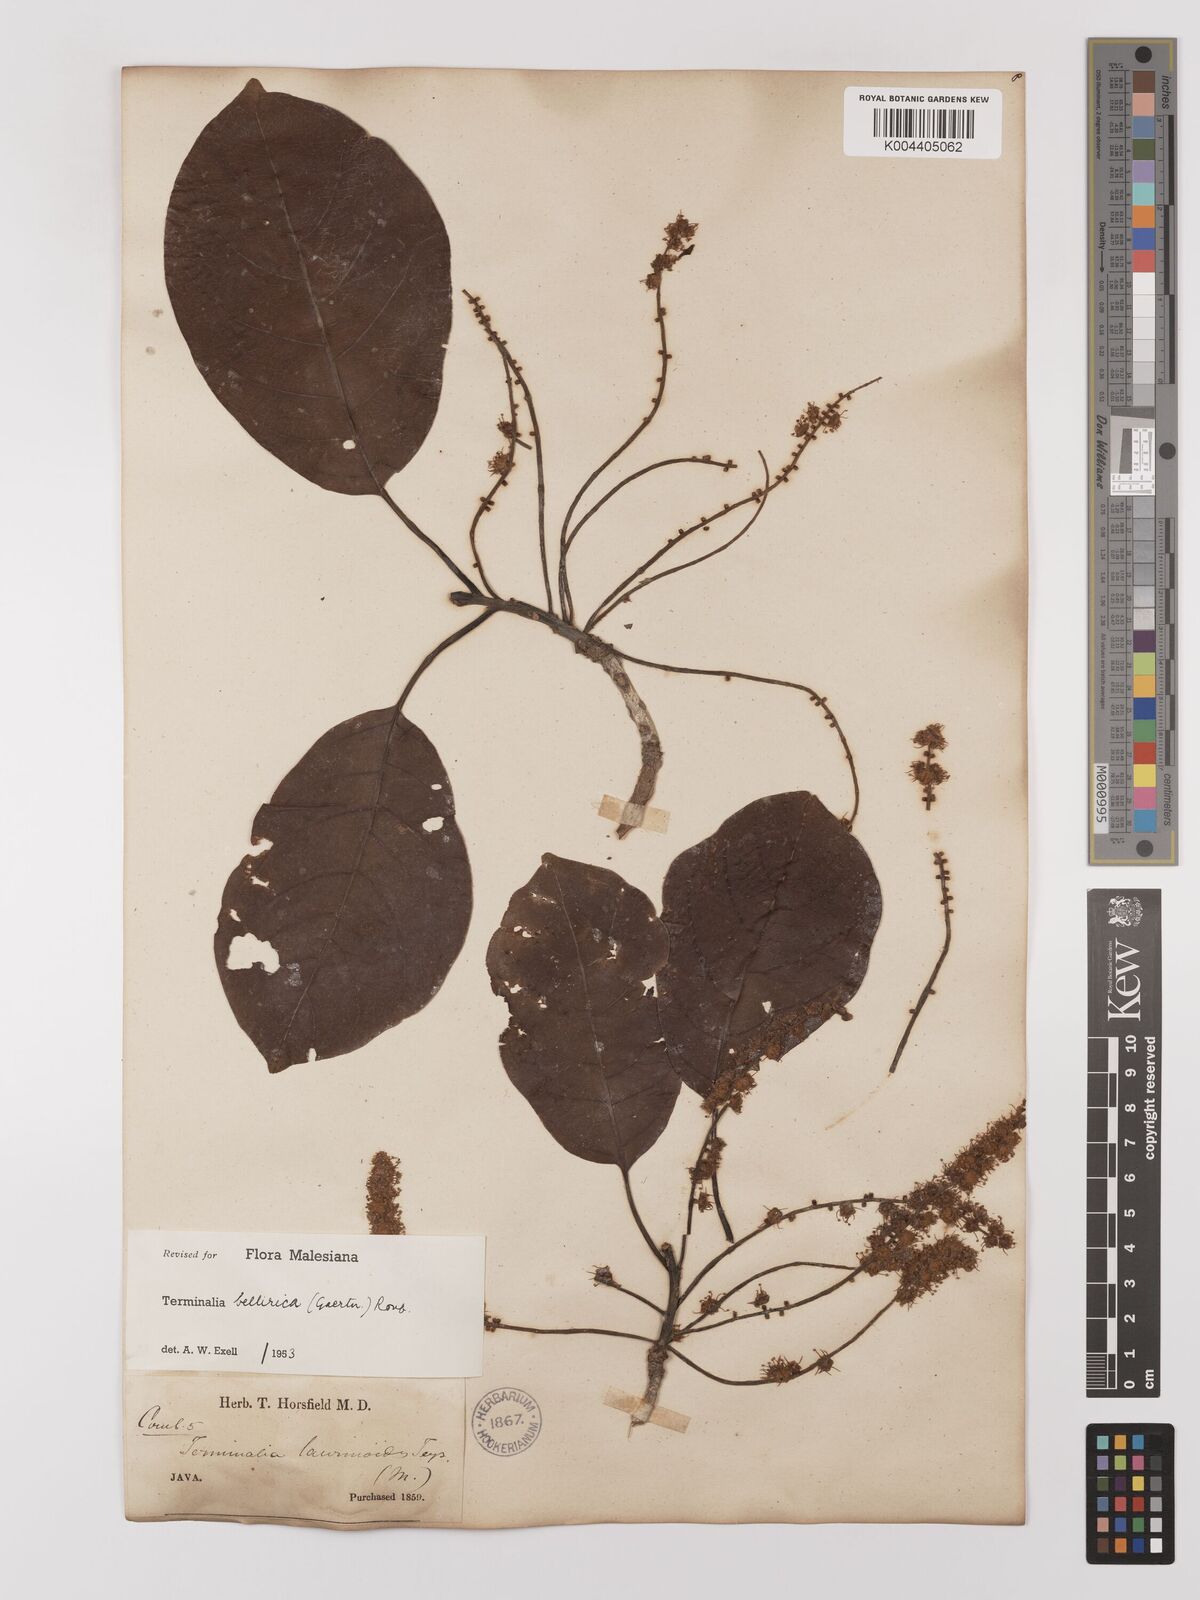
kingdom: Plantae
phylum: Tracheophyta
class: Magnoliopsida
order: Myrtales
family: Combretaceae
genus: Terminalia
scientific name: Terminalia bellirica
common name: Beleric myrobalan
